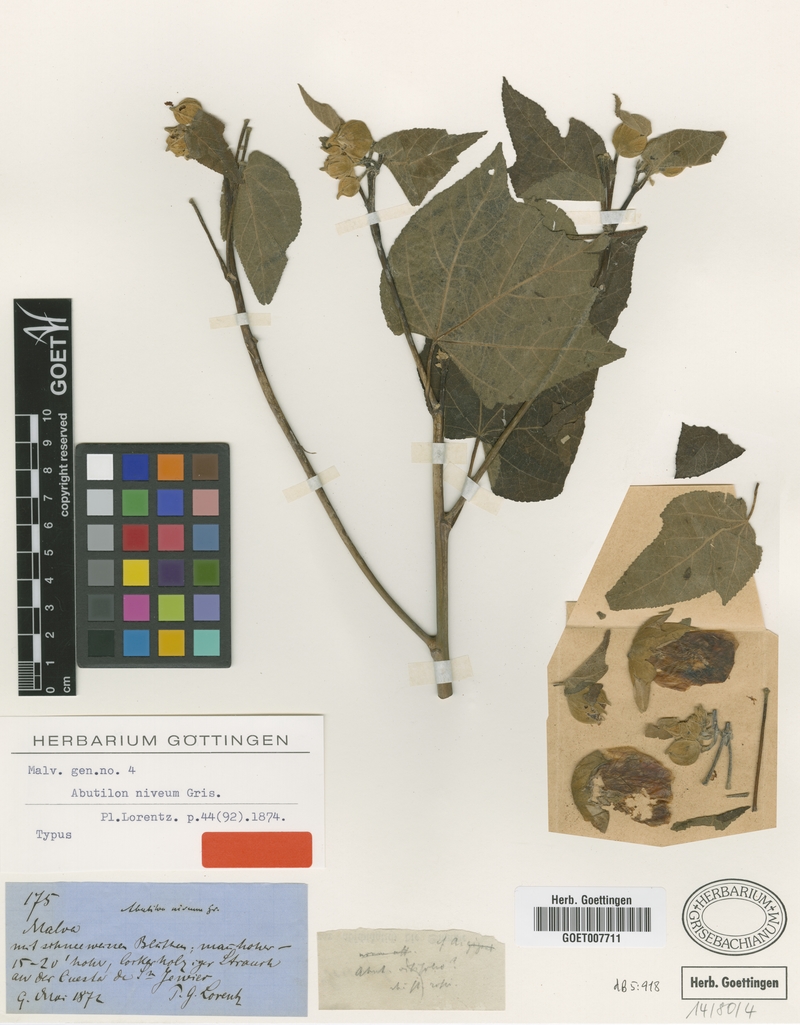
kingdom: Plantae
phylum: Tracheophyta
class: Magnoliopsida
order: Malvales
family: Malvaceae
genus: Callianthe
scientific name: Callianthe nivea
